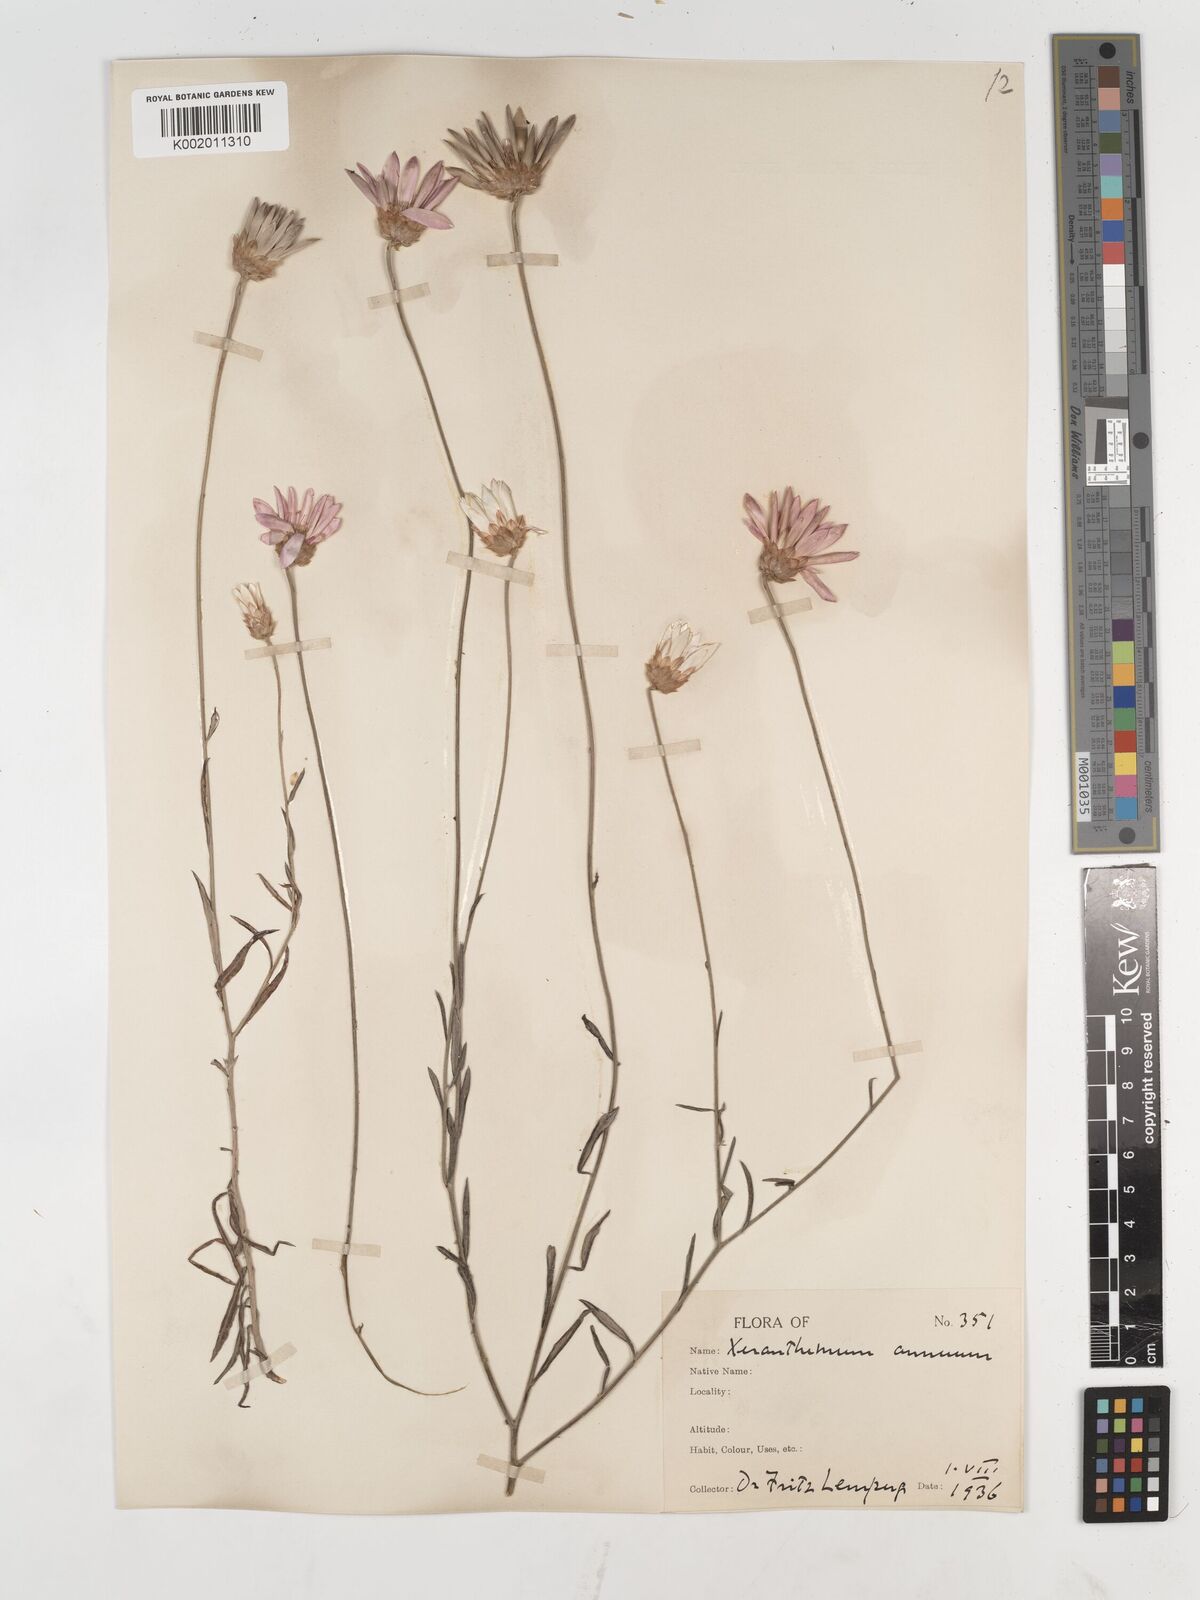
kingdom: Plantae
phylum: Tracheophyta
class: Magnoliopsida
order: Asterales
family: Asteraceae
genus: Xeranthemum
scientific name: Xeranthemum annuum
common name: Immortelle
